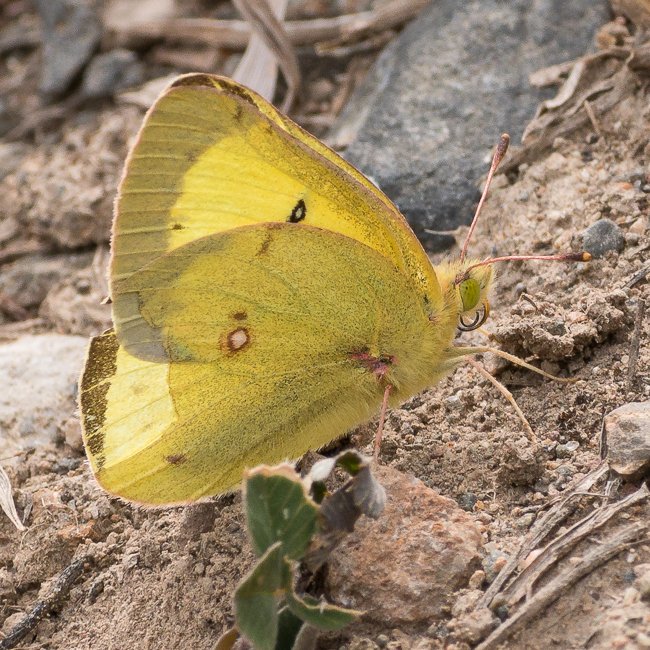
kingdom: Animalia
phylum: Arthropoda
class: Insecta
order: Lepidoptera
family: Pieridae
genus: Colias
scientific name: Colias philodice
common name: Clouded Sulphur
